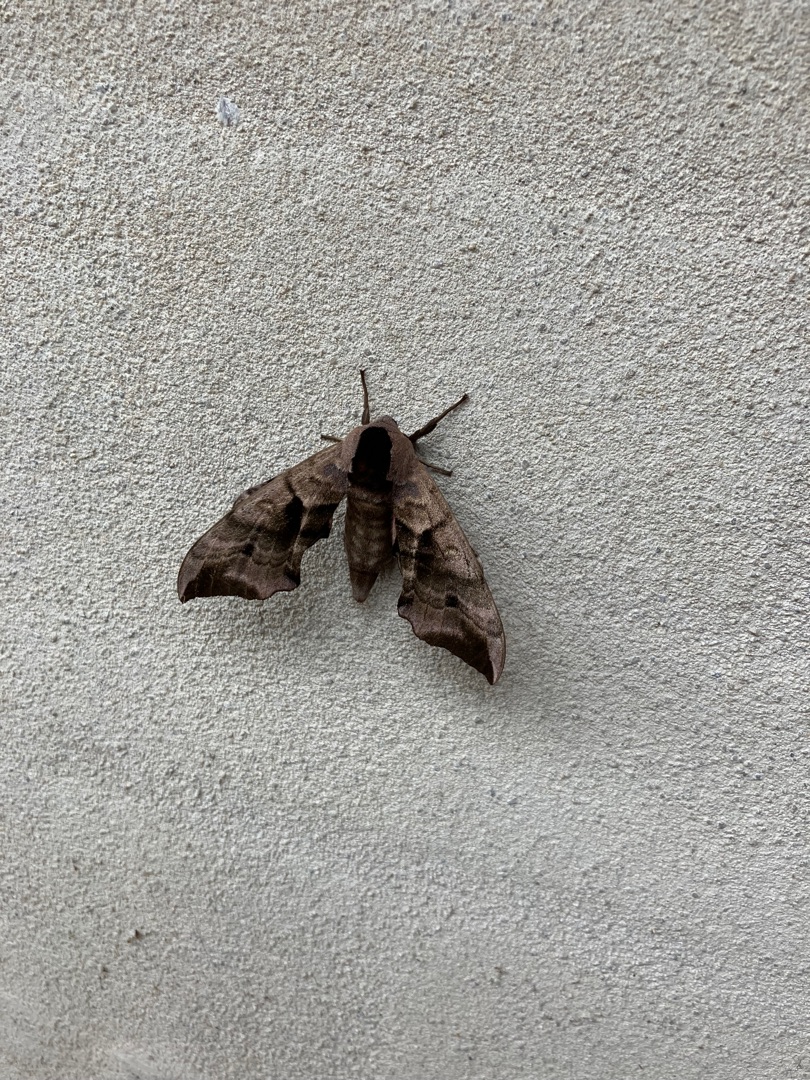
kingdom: Animalia
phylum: Arthropoda
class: Insecta
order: Lepidoptera
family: Sphingidae
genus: Smerinthus
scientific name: Smerinthus ocellata
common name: Aftenpåfugleøje
